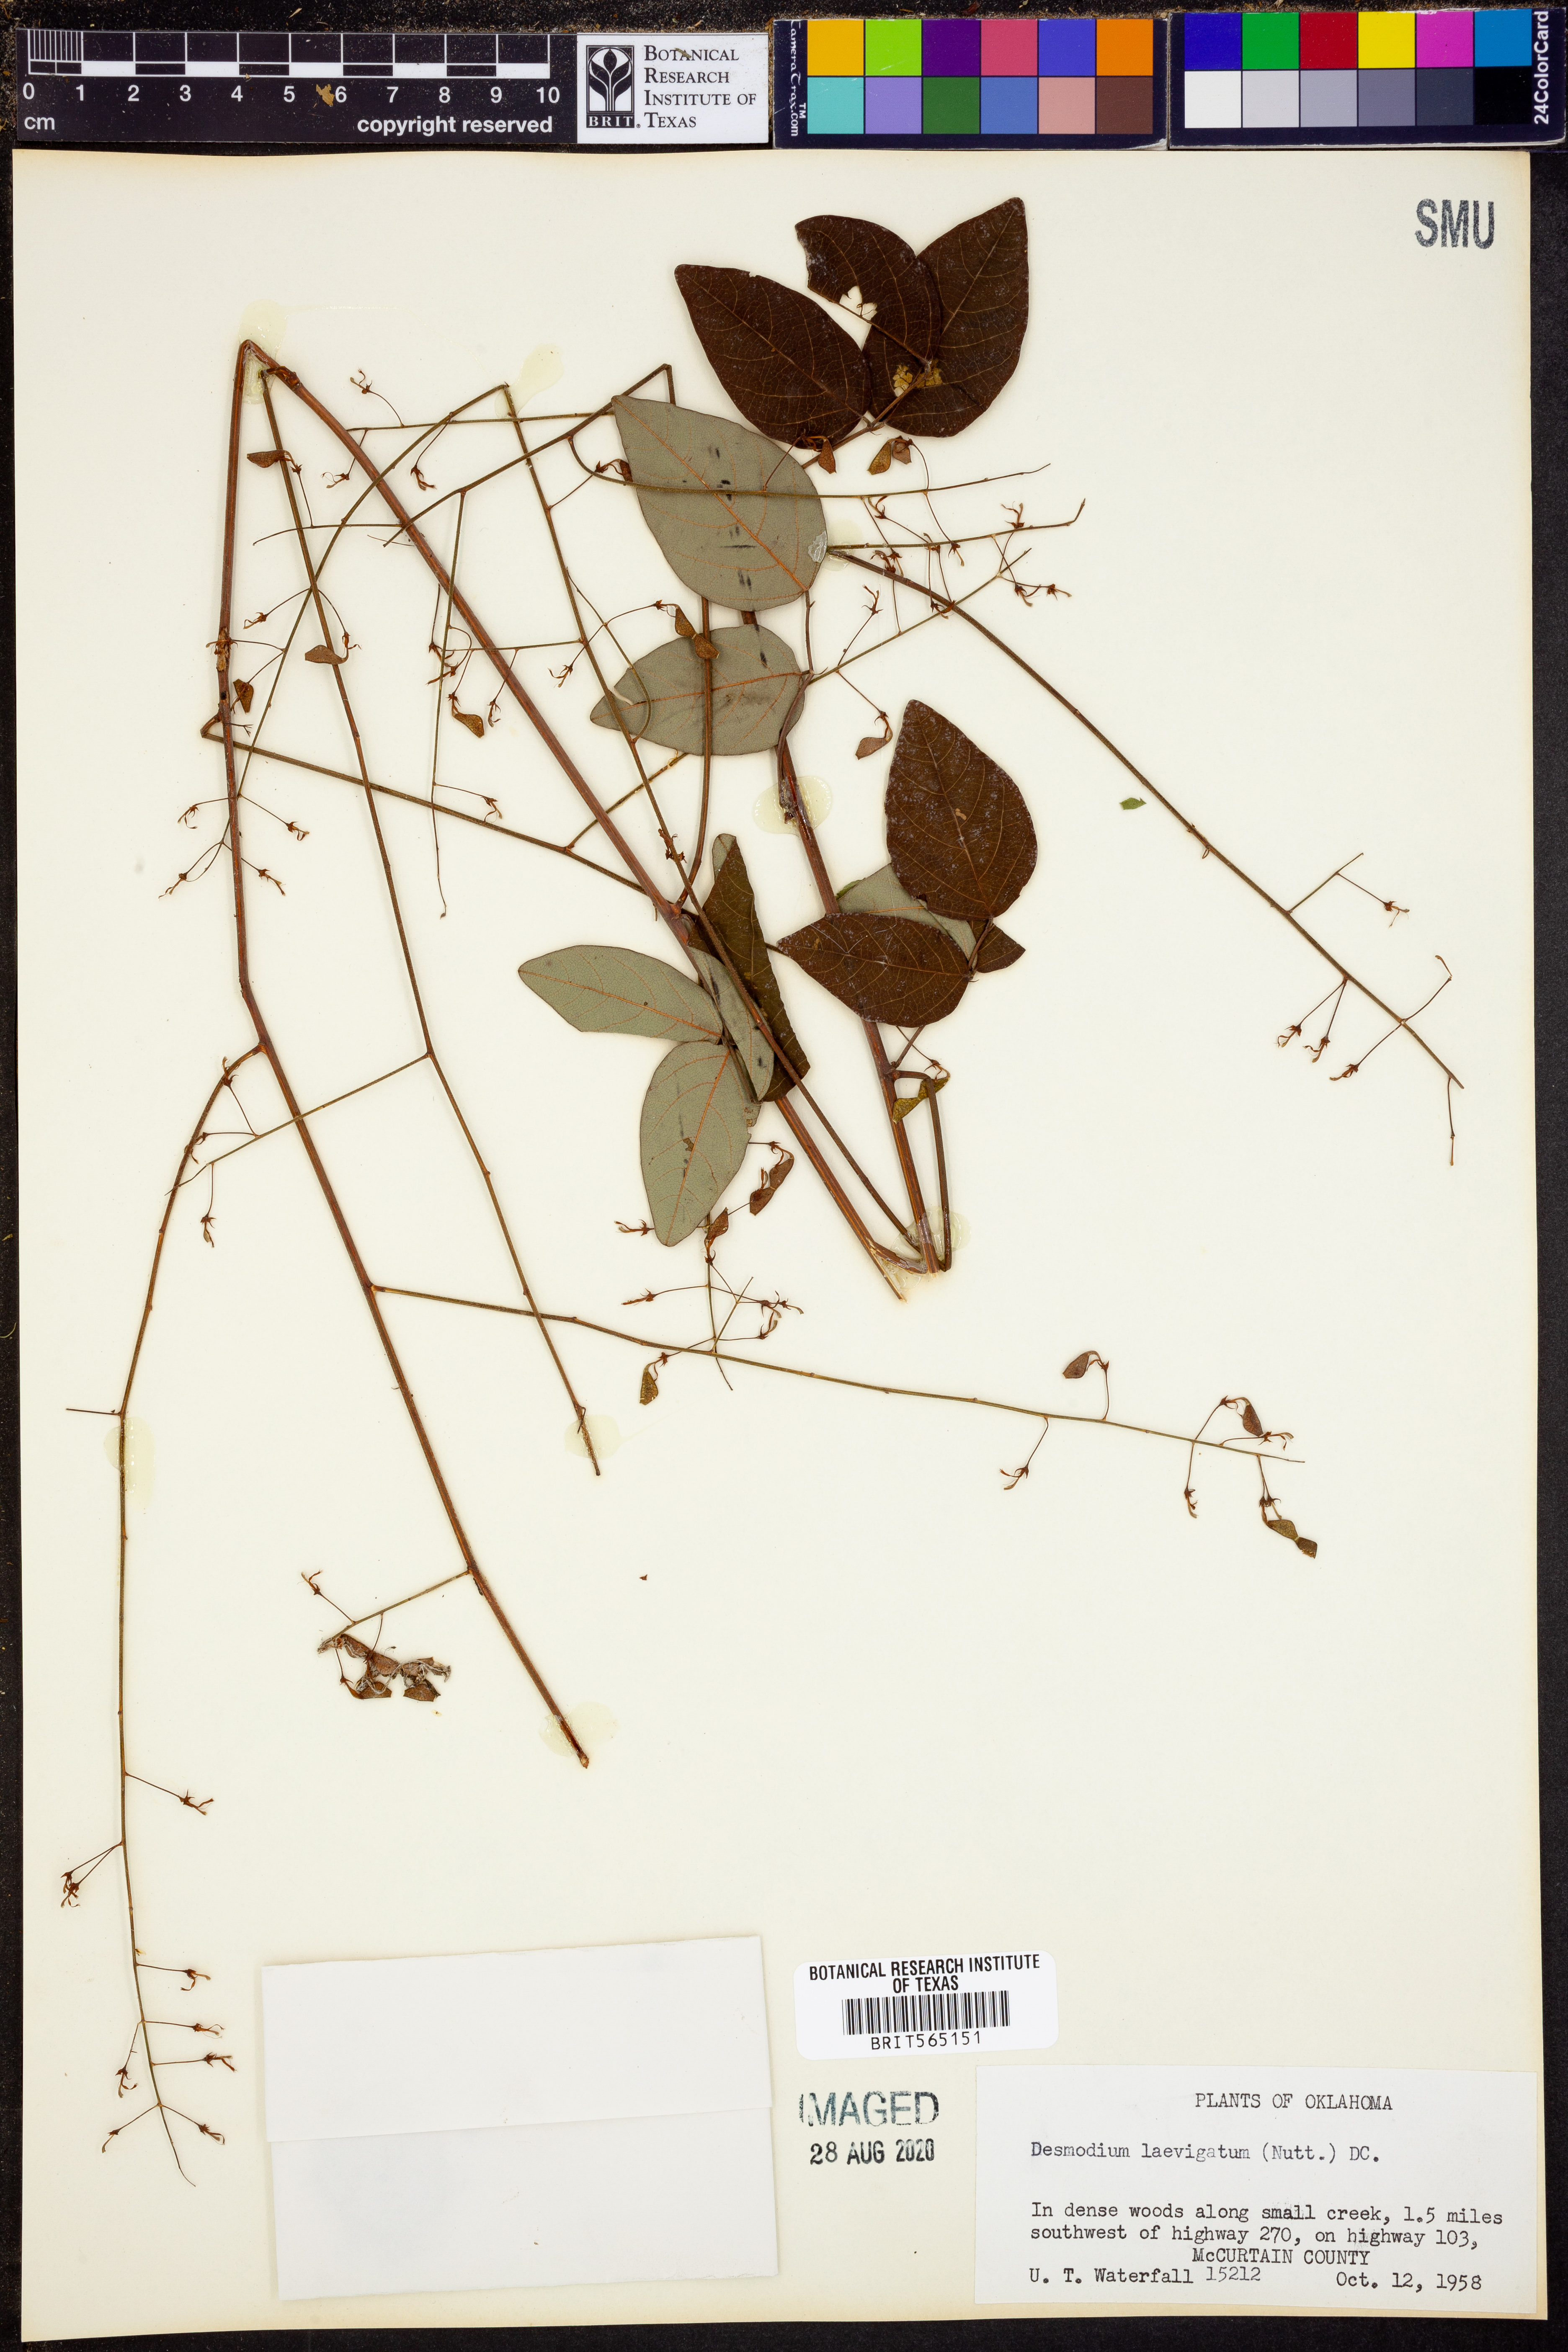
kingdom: Plantae
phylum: Tracheophyta
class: Magnoliopsida
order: Fabales
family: Fabaceae
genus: Desmodium
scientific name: Desmodium laevigatum
